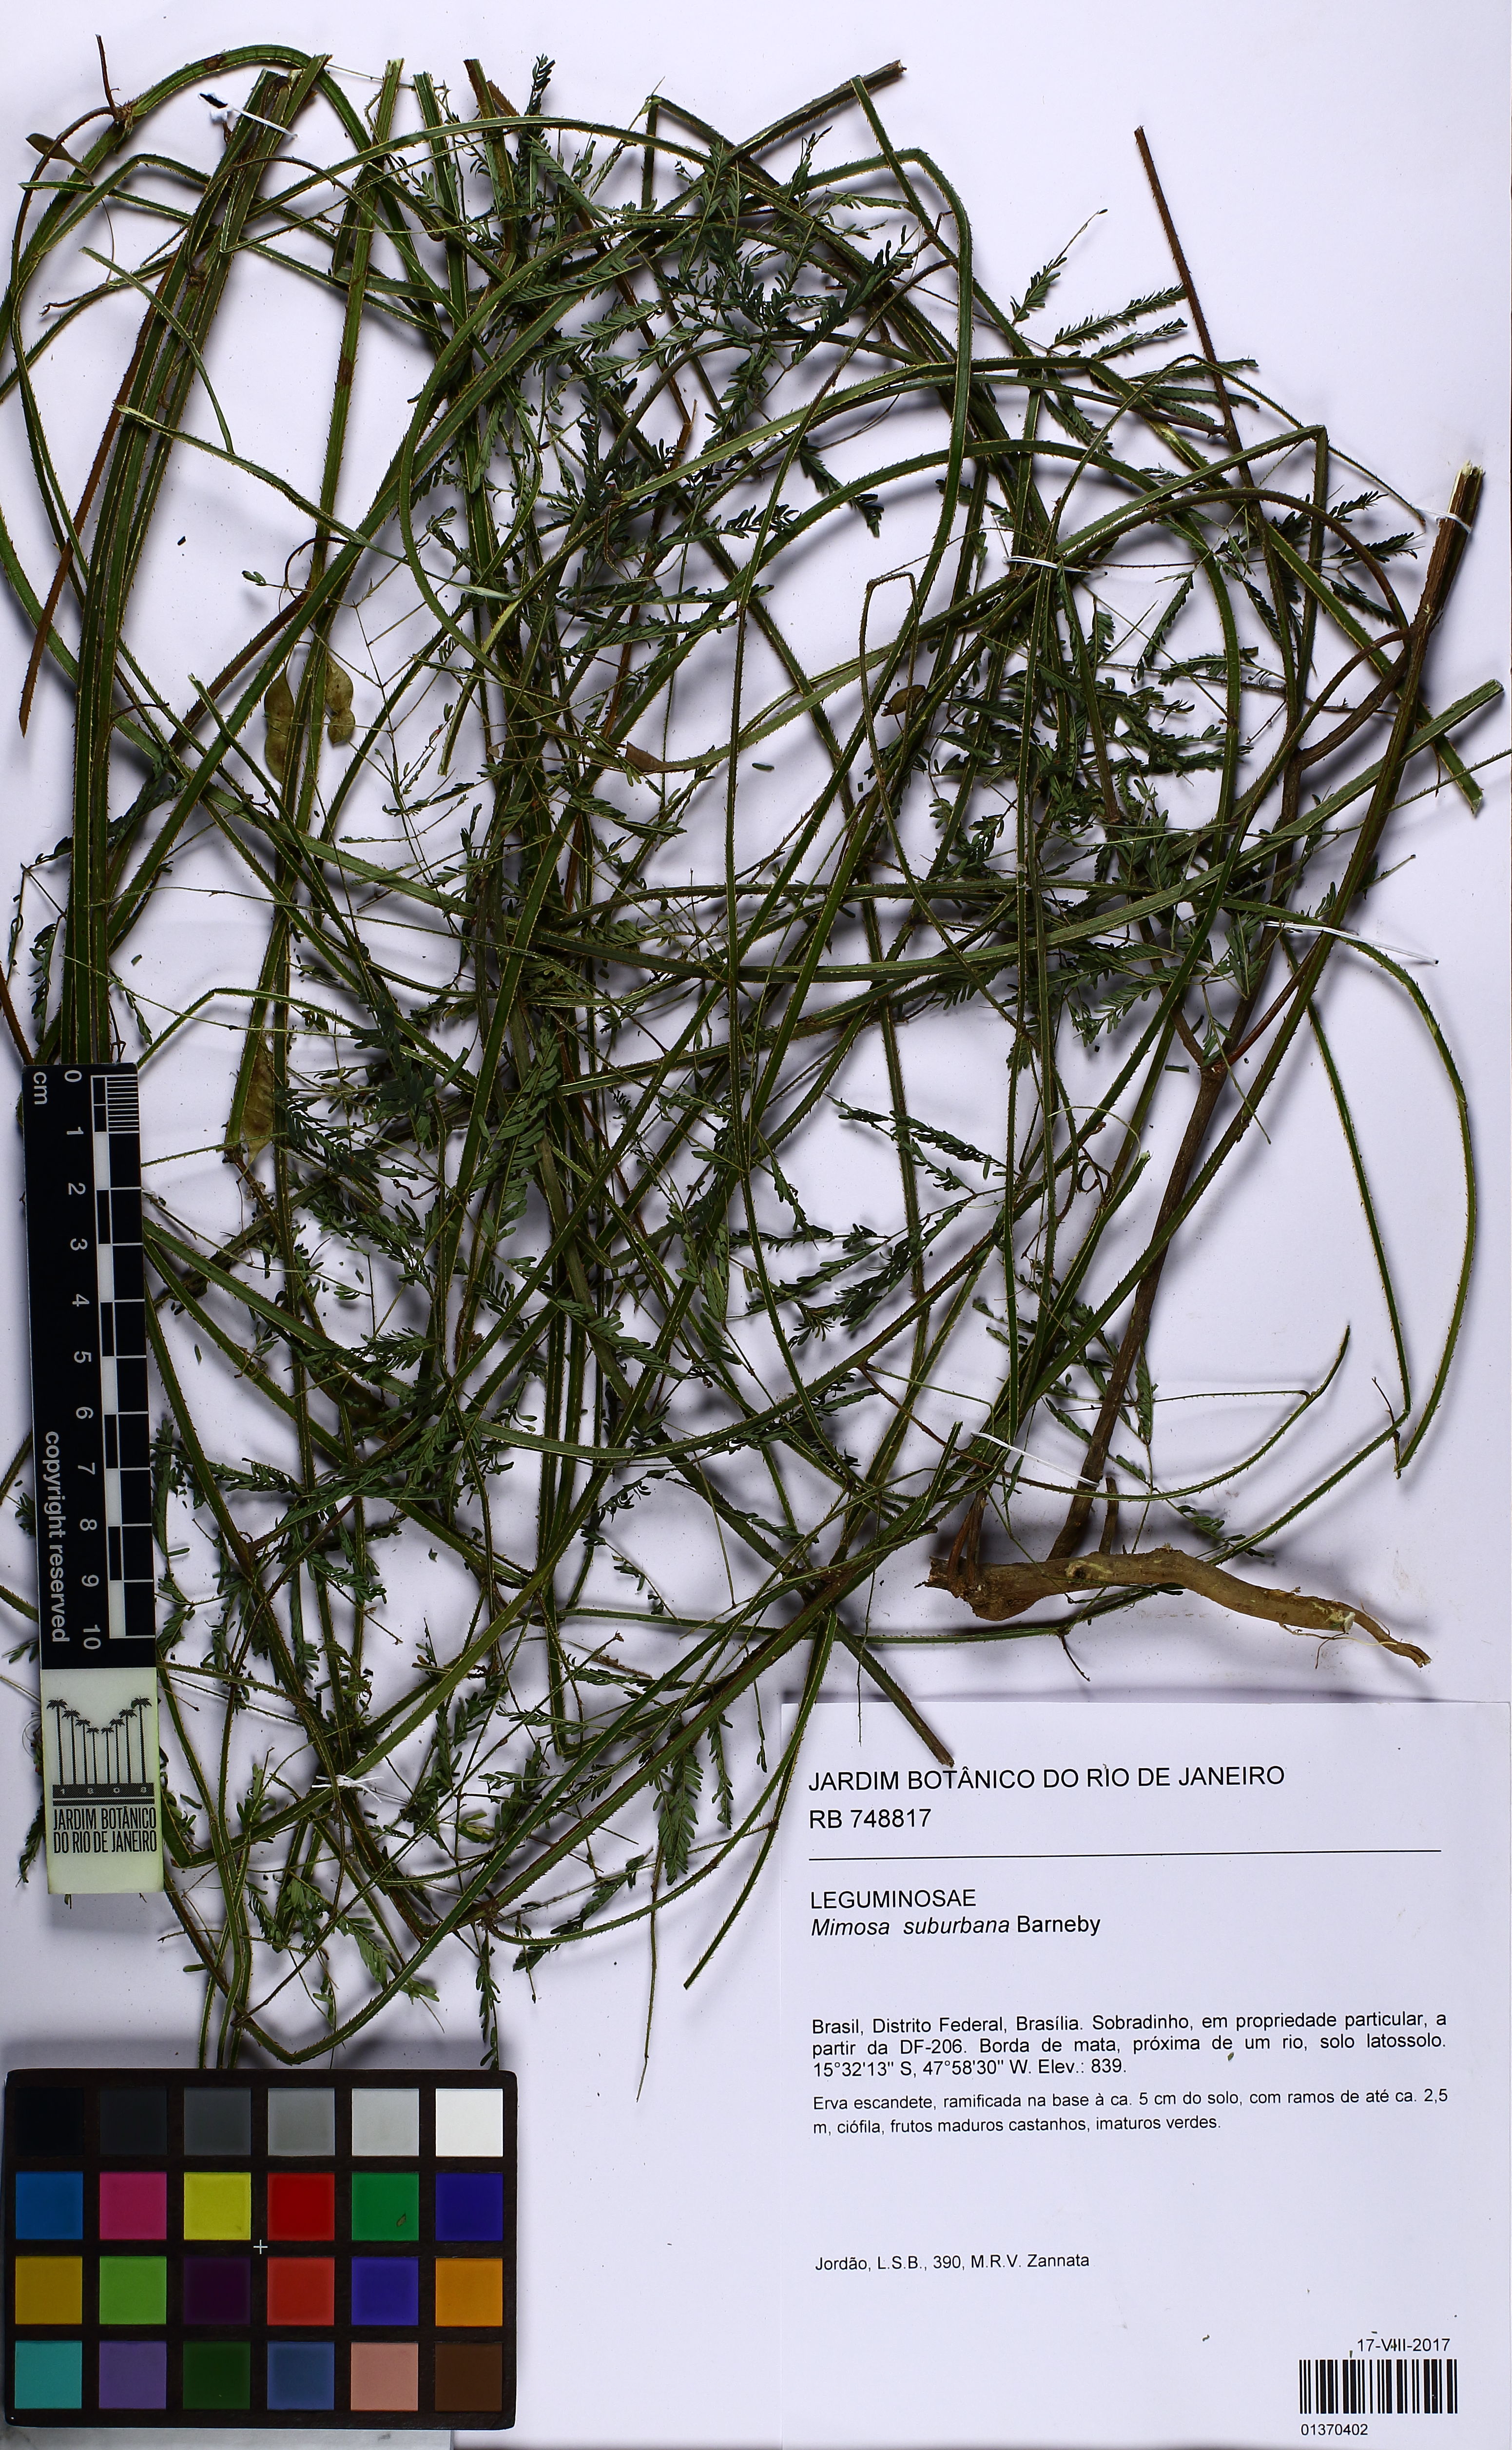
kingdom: Plantae
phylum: Tracheophyta
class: Magnoliopsida
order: Fabales
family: Fabaceae
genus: Mimosa
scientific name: Mimosa suburbana
